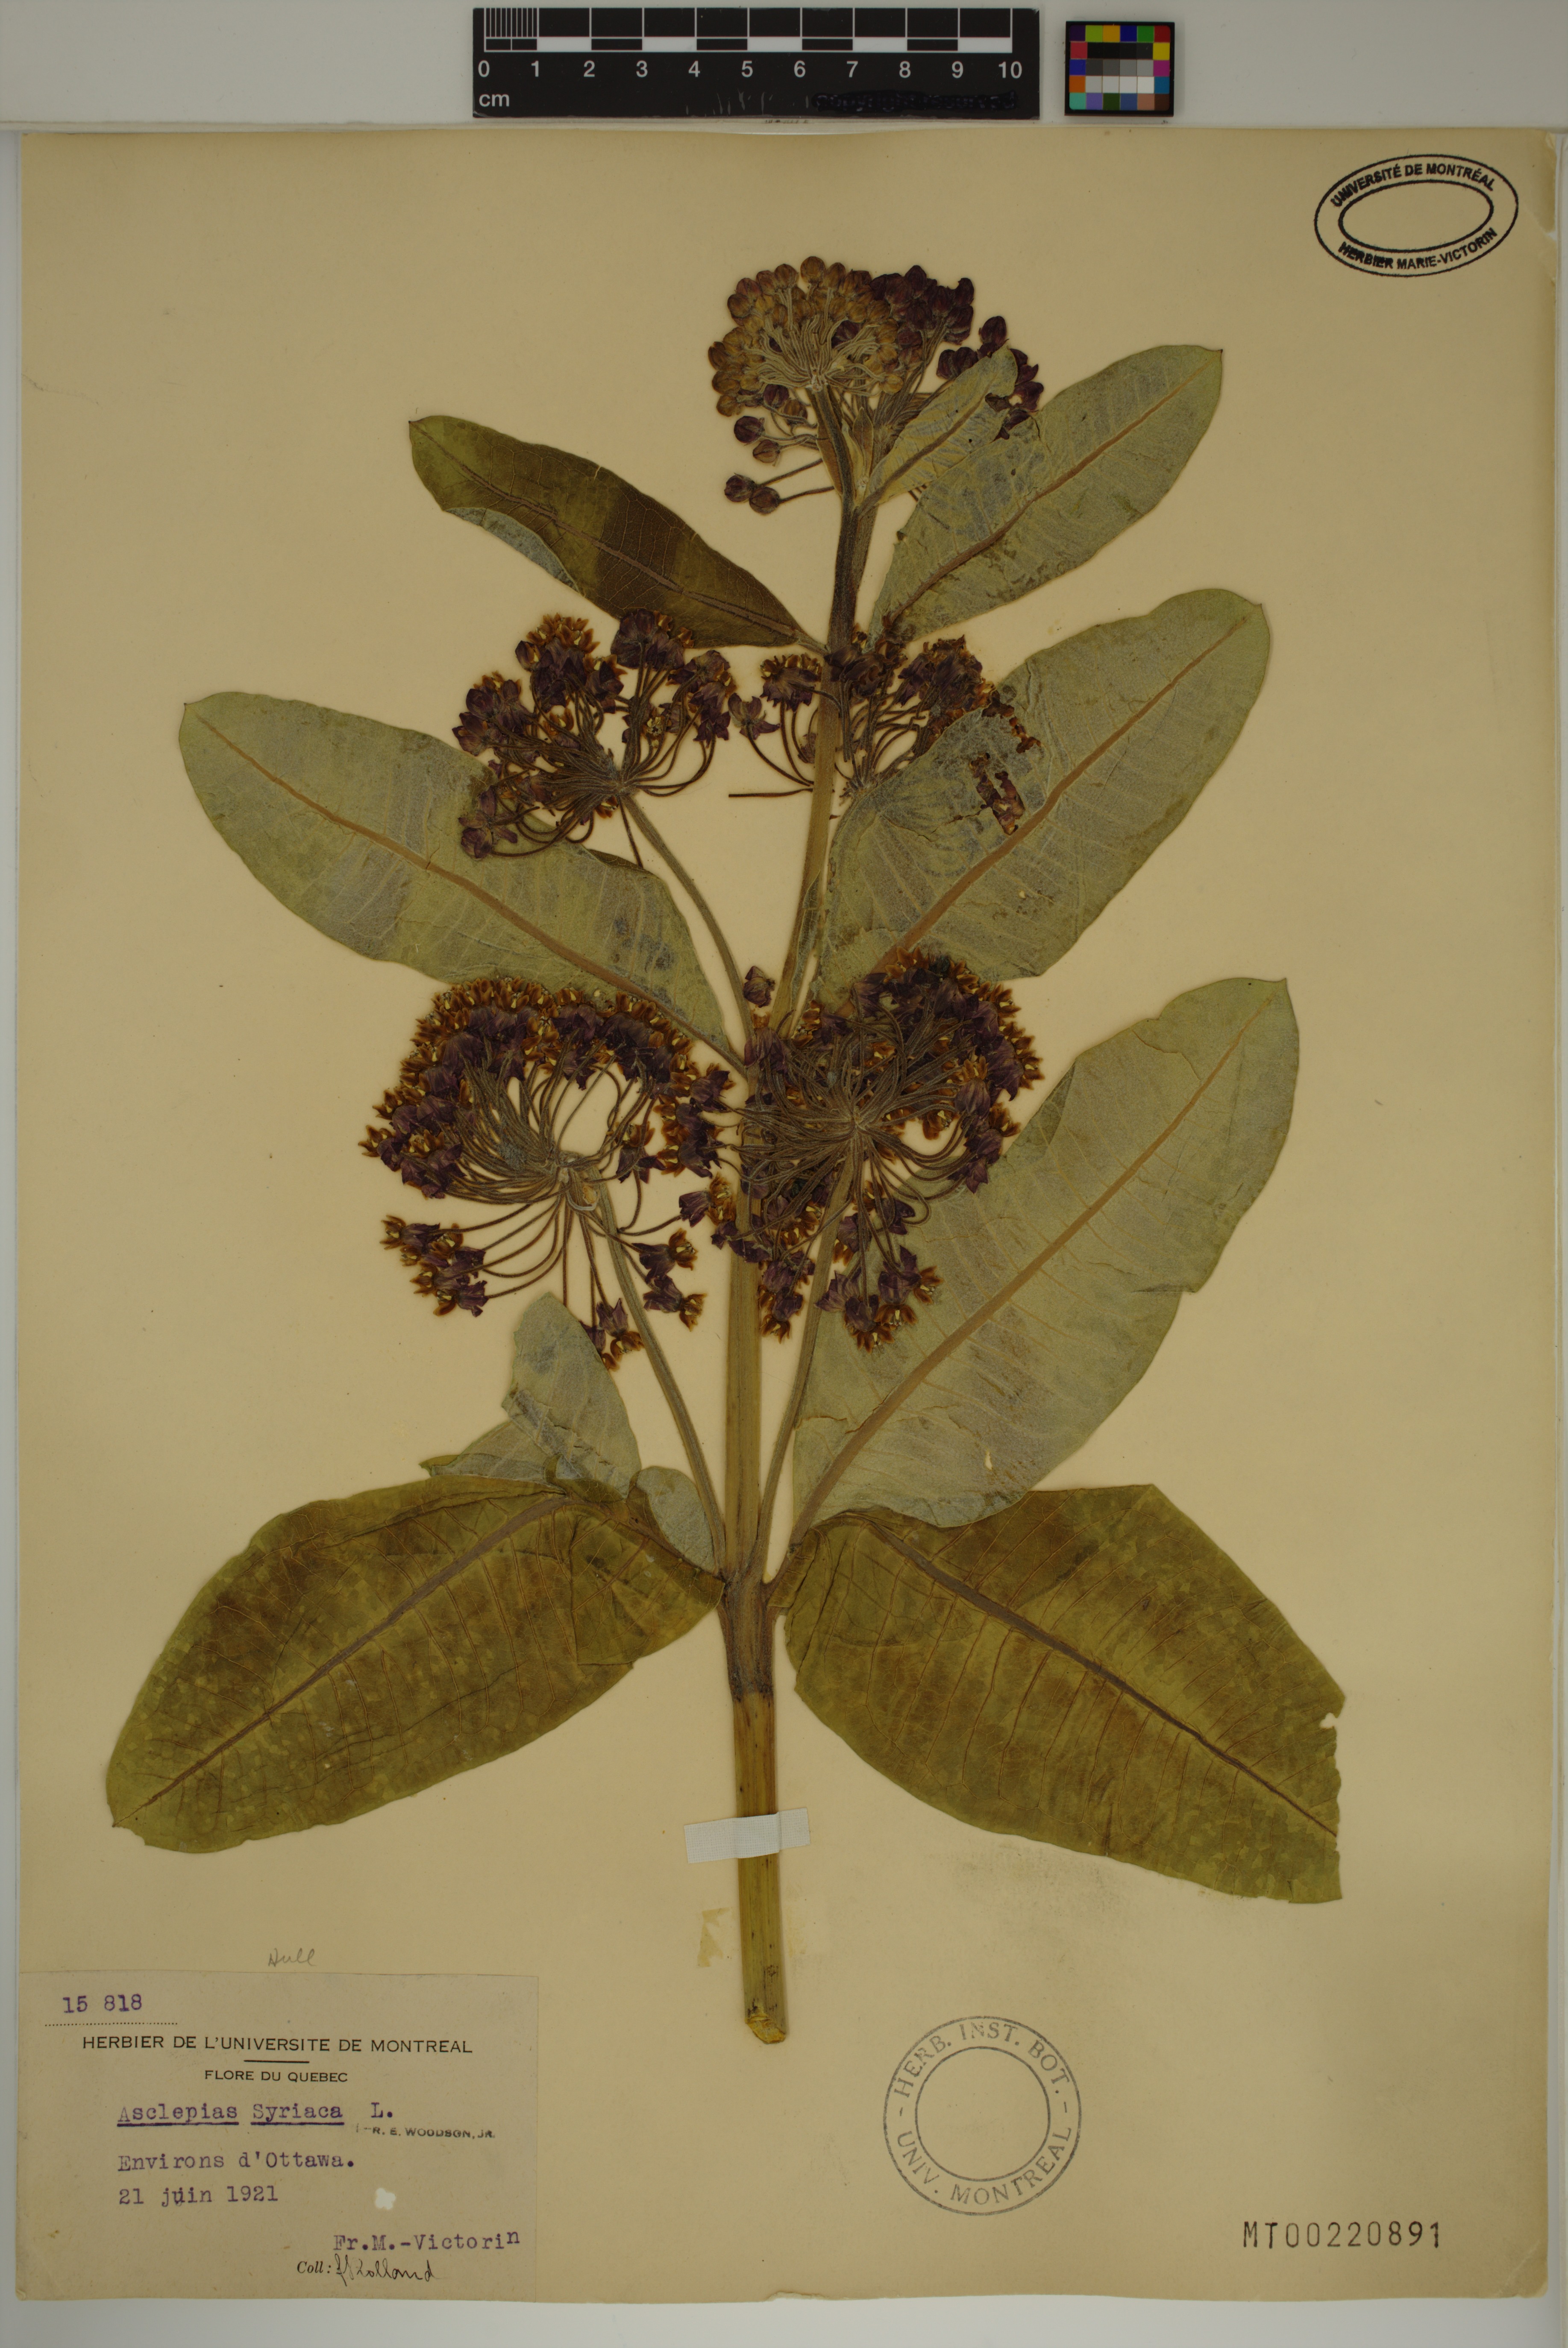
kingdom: Plantae
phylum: Tracheophyta
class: Magnoliopsida
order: Gentianales
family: Apocynaceae
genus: Asclepias
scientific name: Asclepias syriaca
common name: Common milkweed
